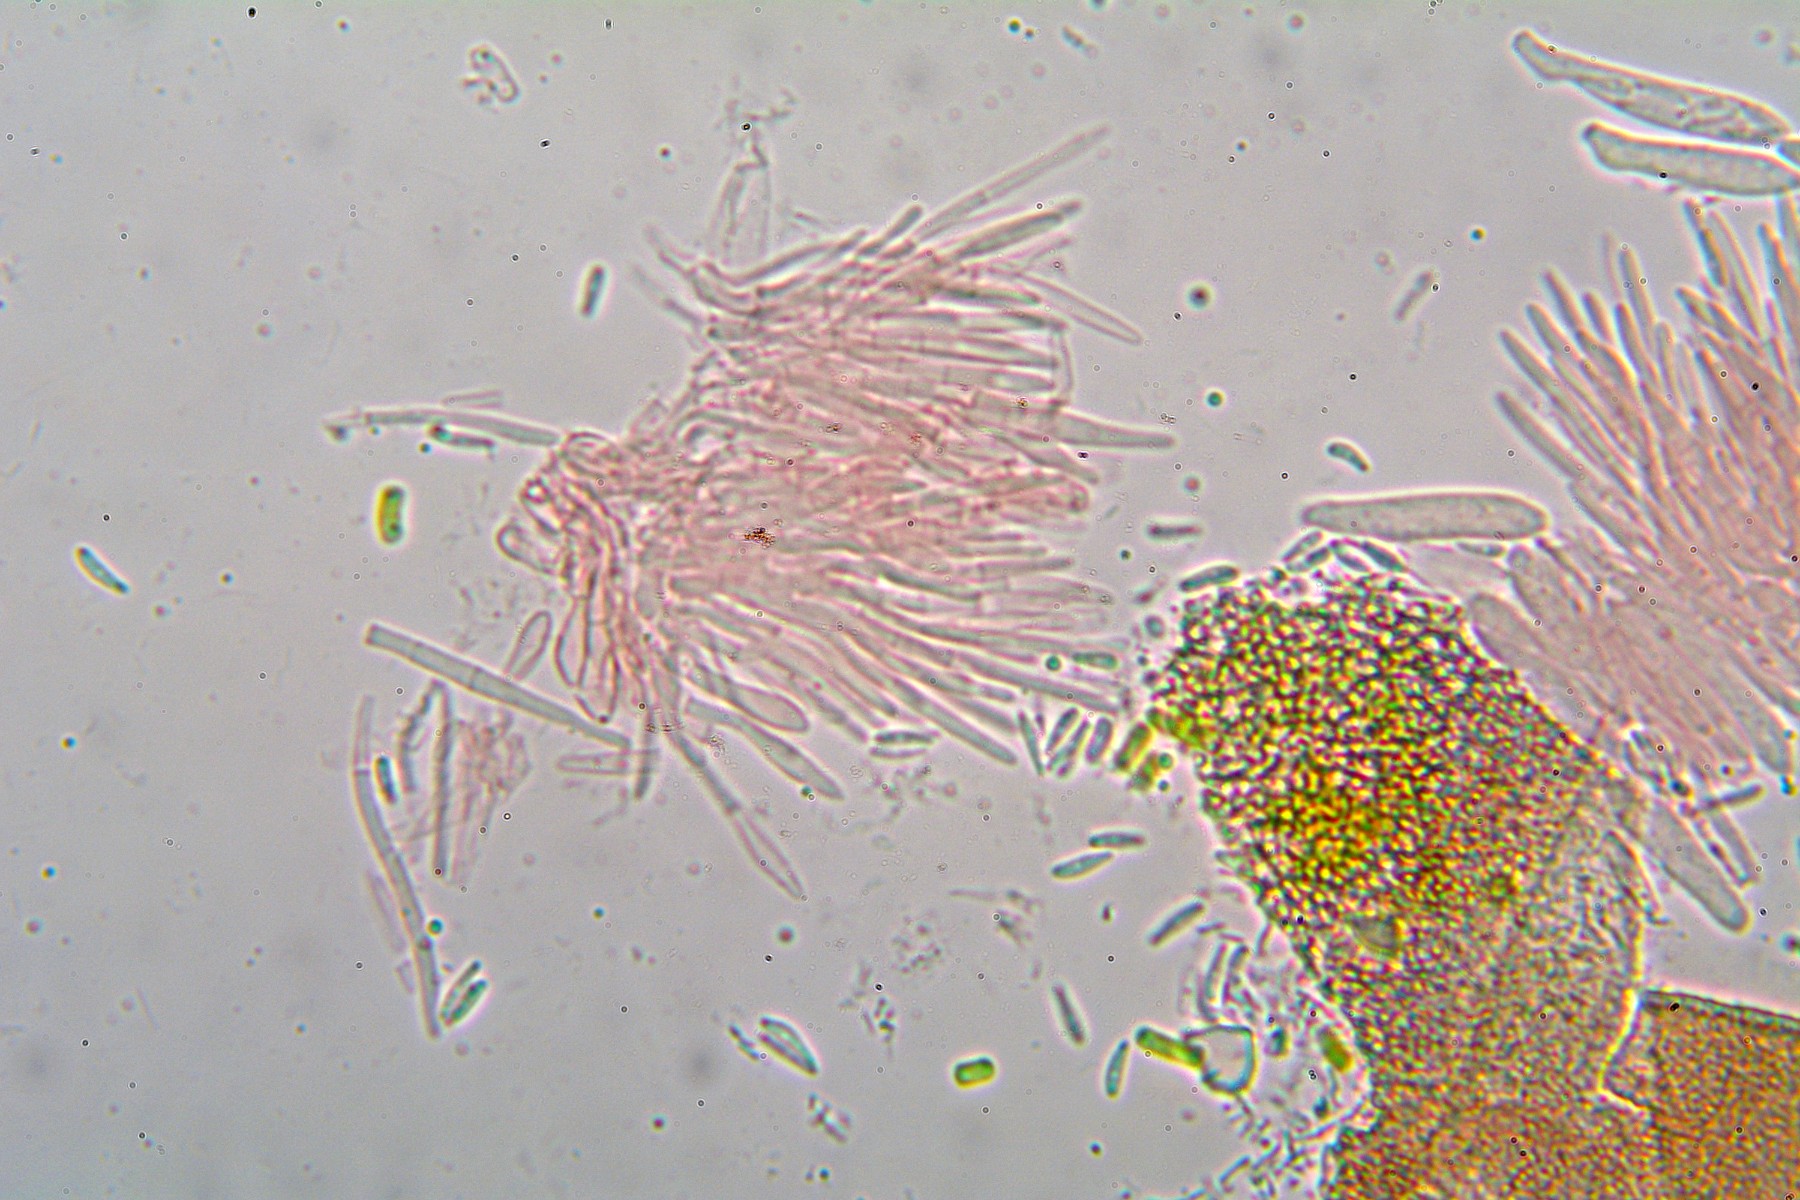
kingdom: Fungi
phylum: Ascomycota
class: Leotiomycetes
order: Helotiales
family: Pezizellaceae
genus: Psilachnum
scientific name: Psilachnum pteridigenum
